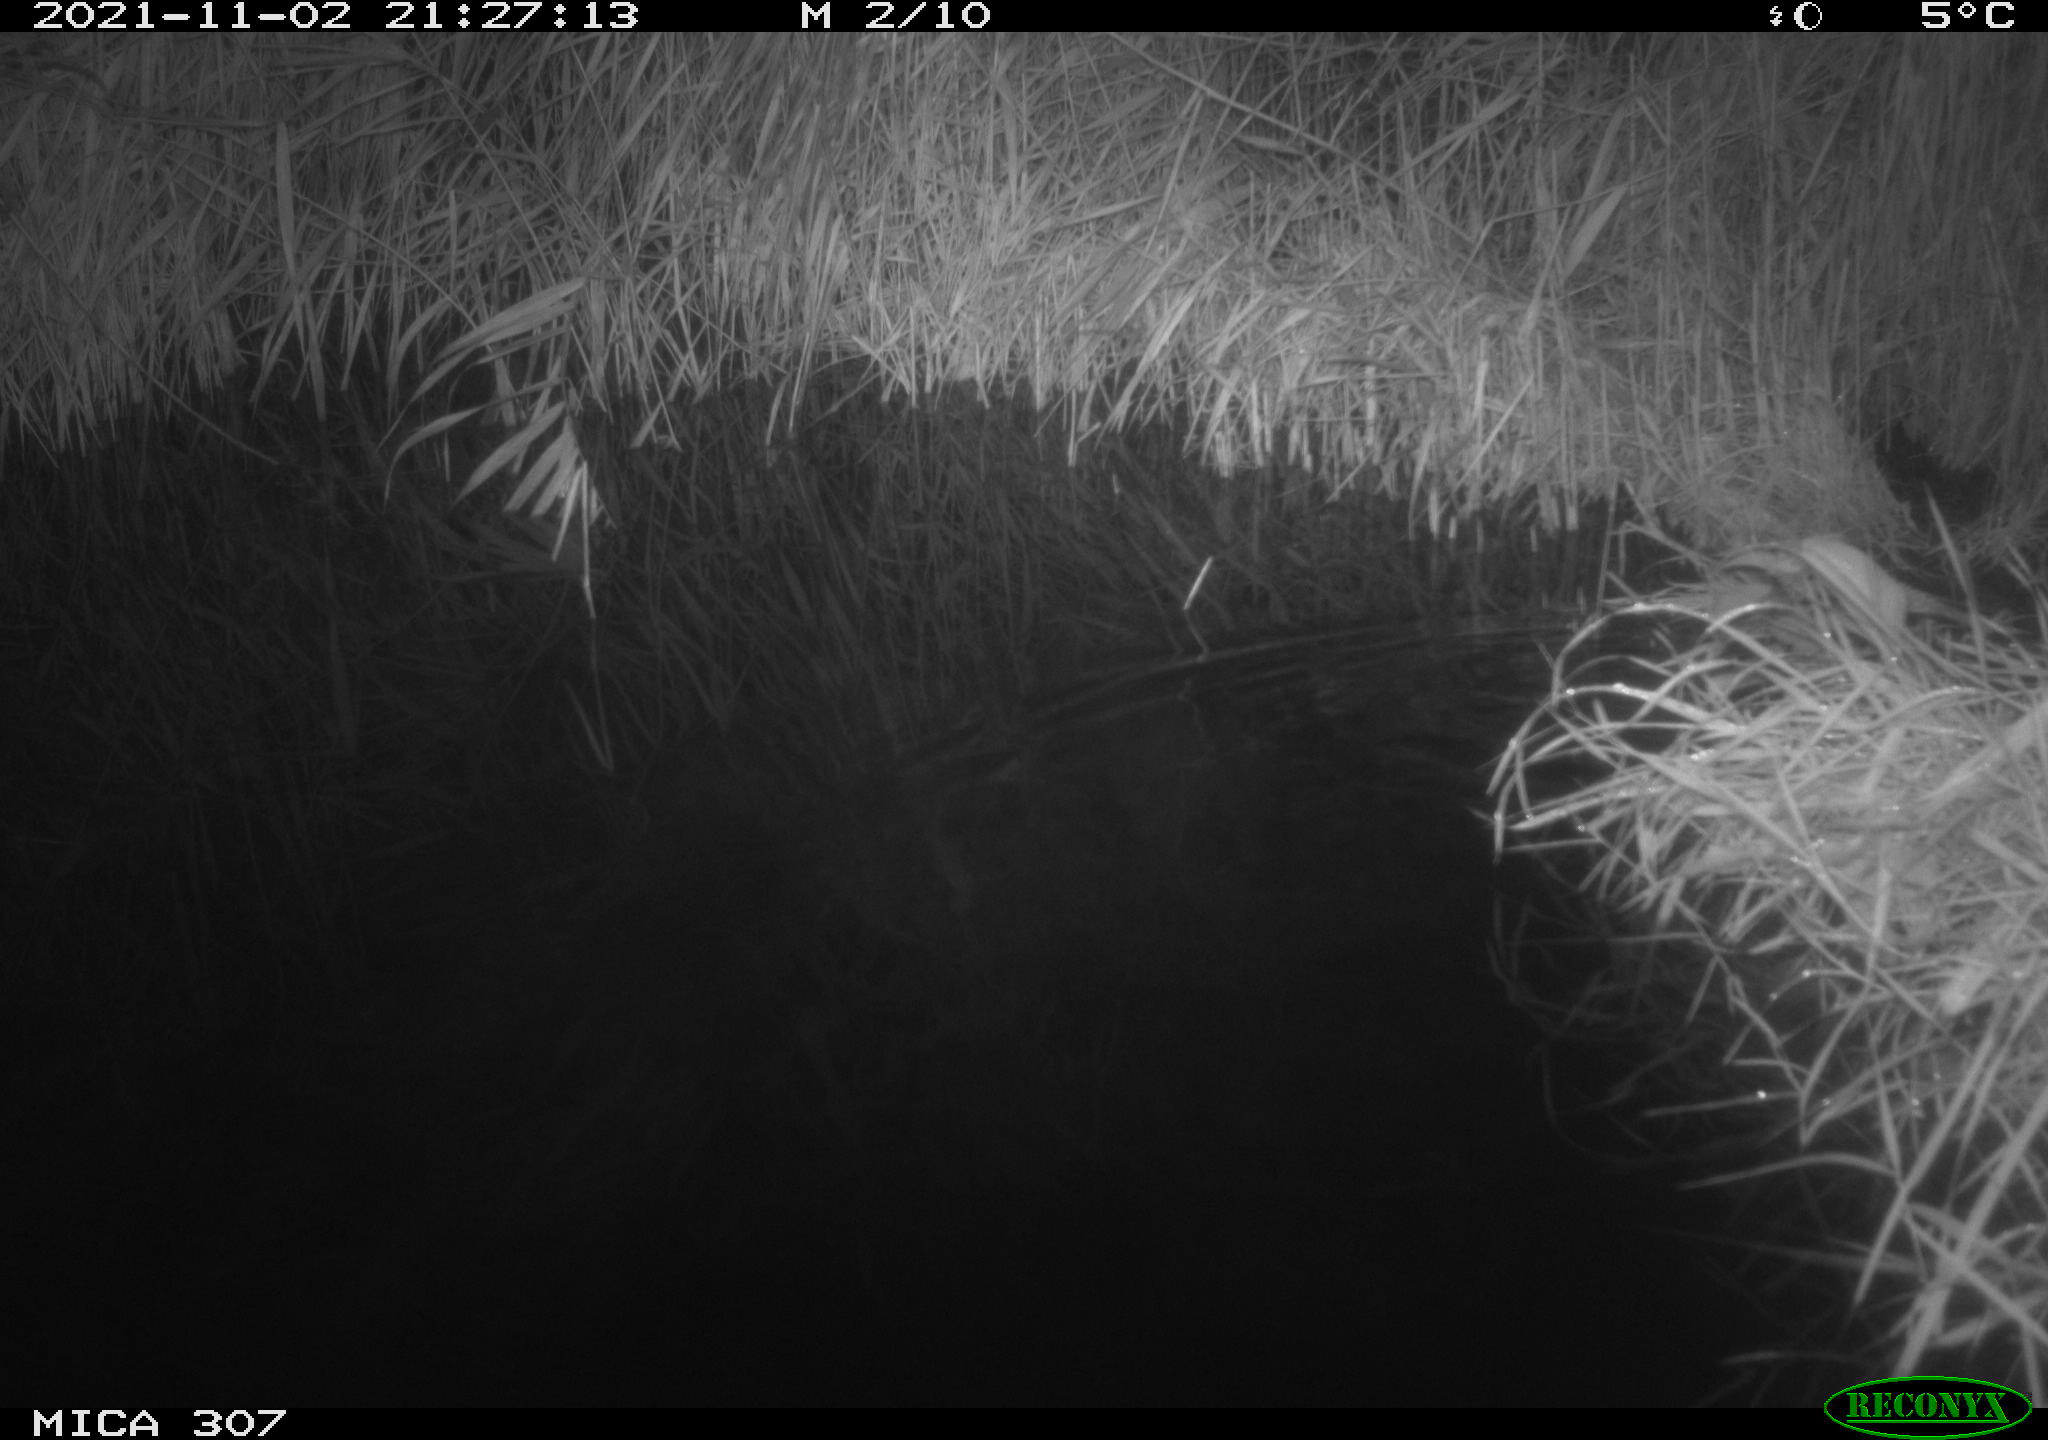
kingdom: Animalia
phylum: Chordata
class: Mammalia
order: Rodentia
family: Muridae
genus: Rattus
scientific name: Rattus norvegicus
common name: Brown rat
